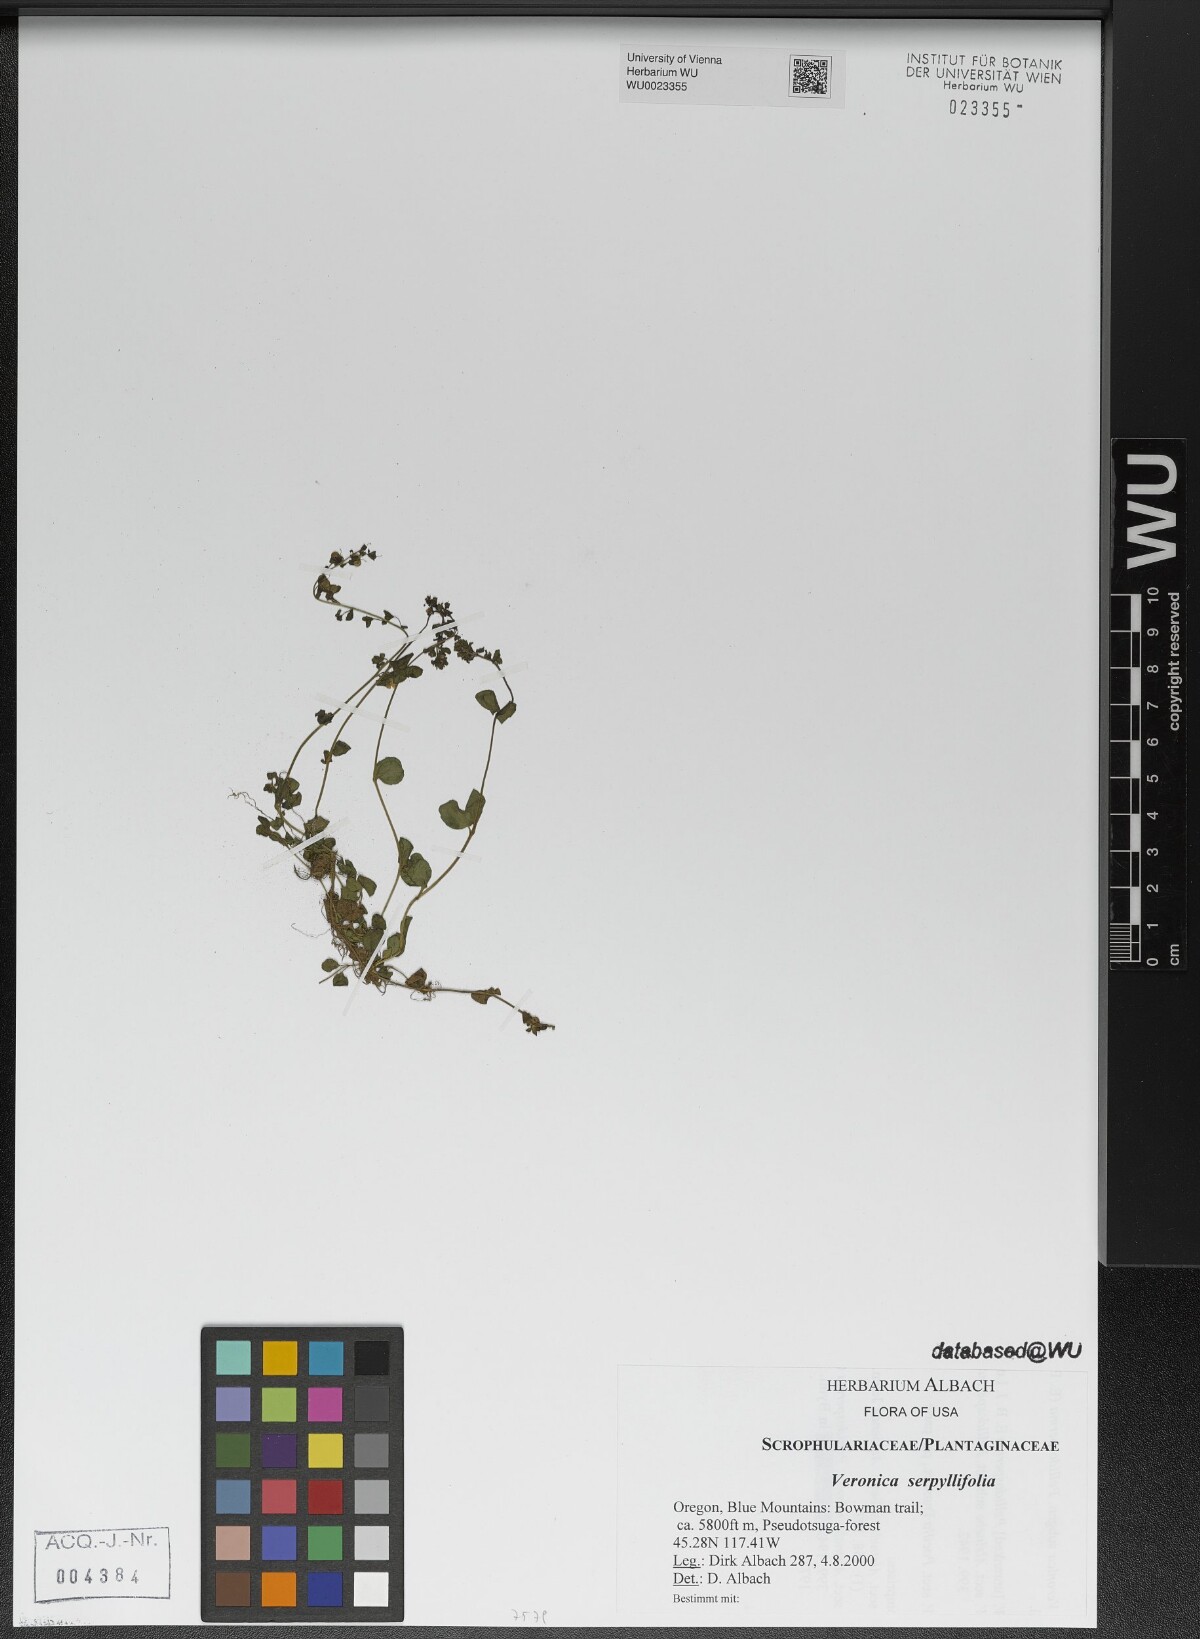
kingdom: Plantae
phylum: Tracheophyta
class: Magnoliopsida
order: Lamiales
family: Plantaginaceae
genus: Veronica
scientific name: Veronica serpyllifolia
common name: Thyme-leaved speedwell
